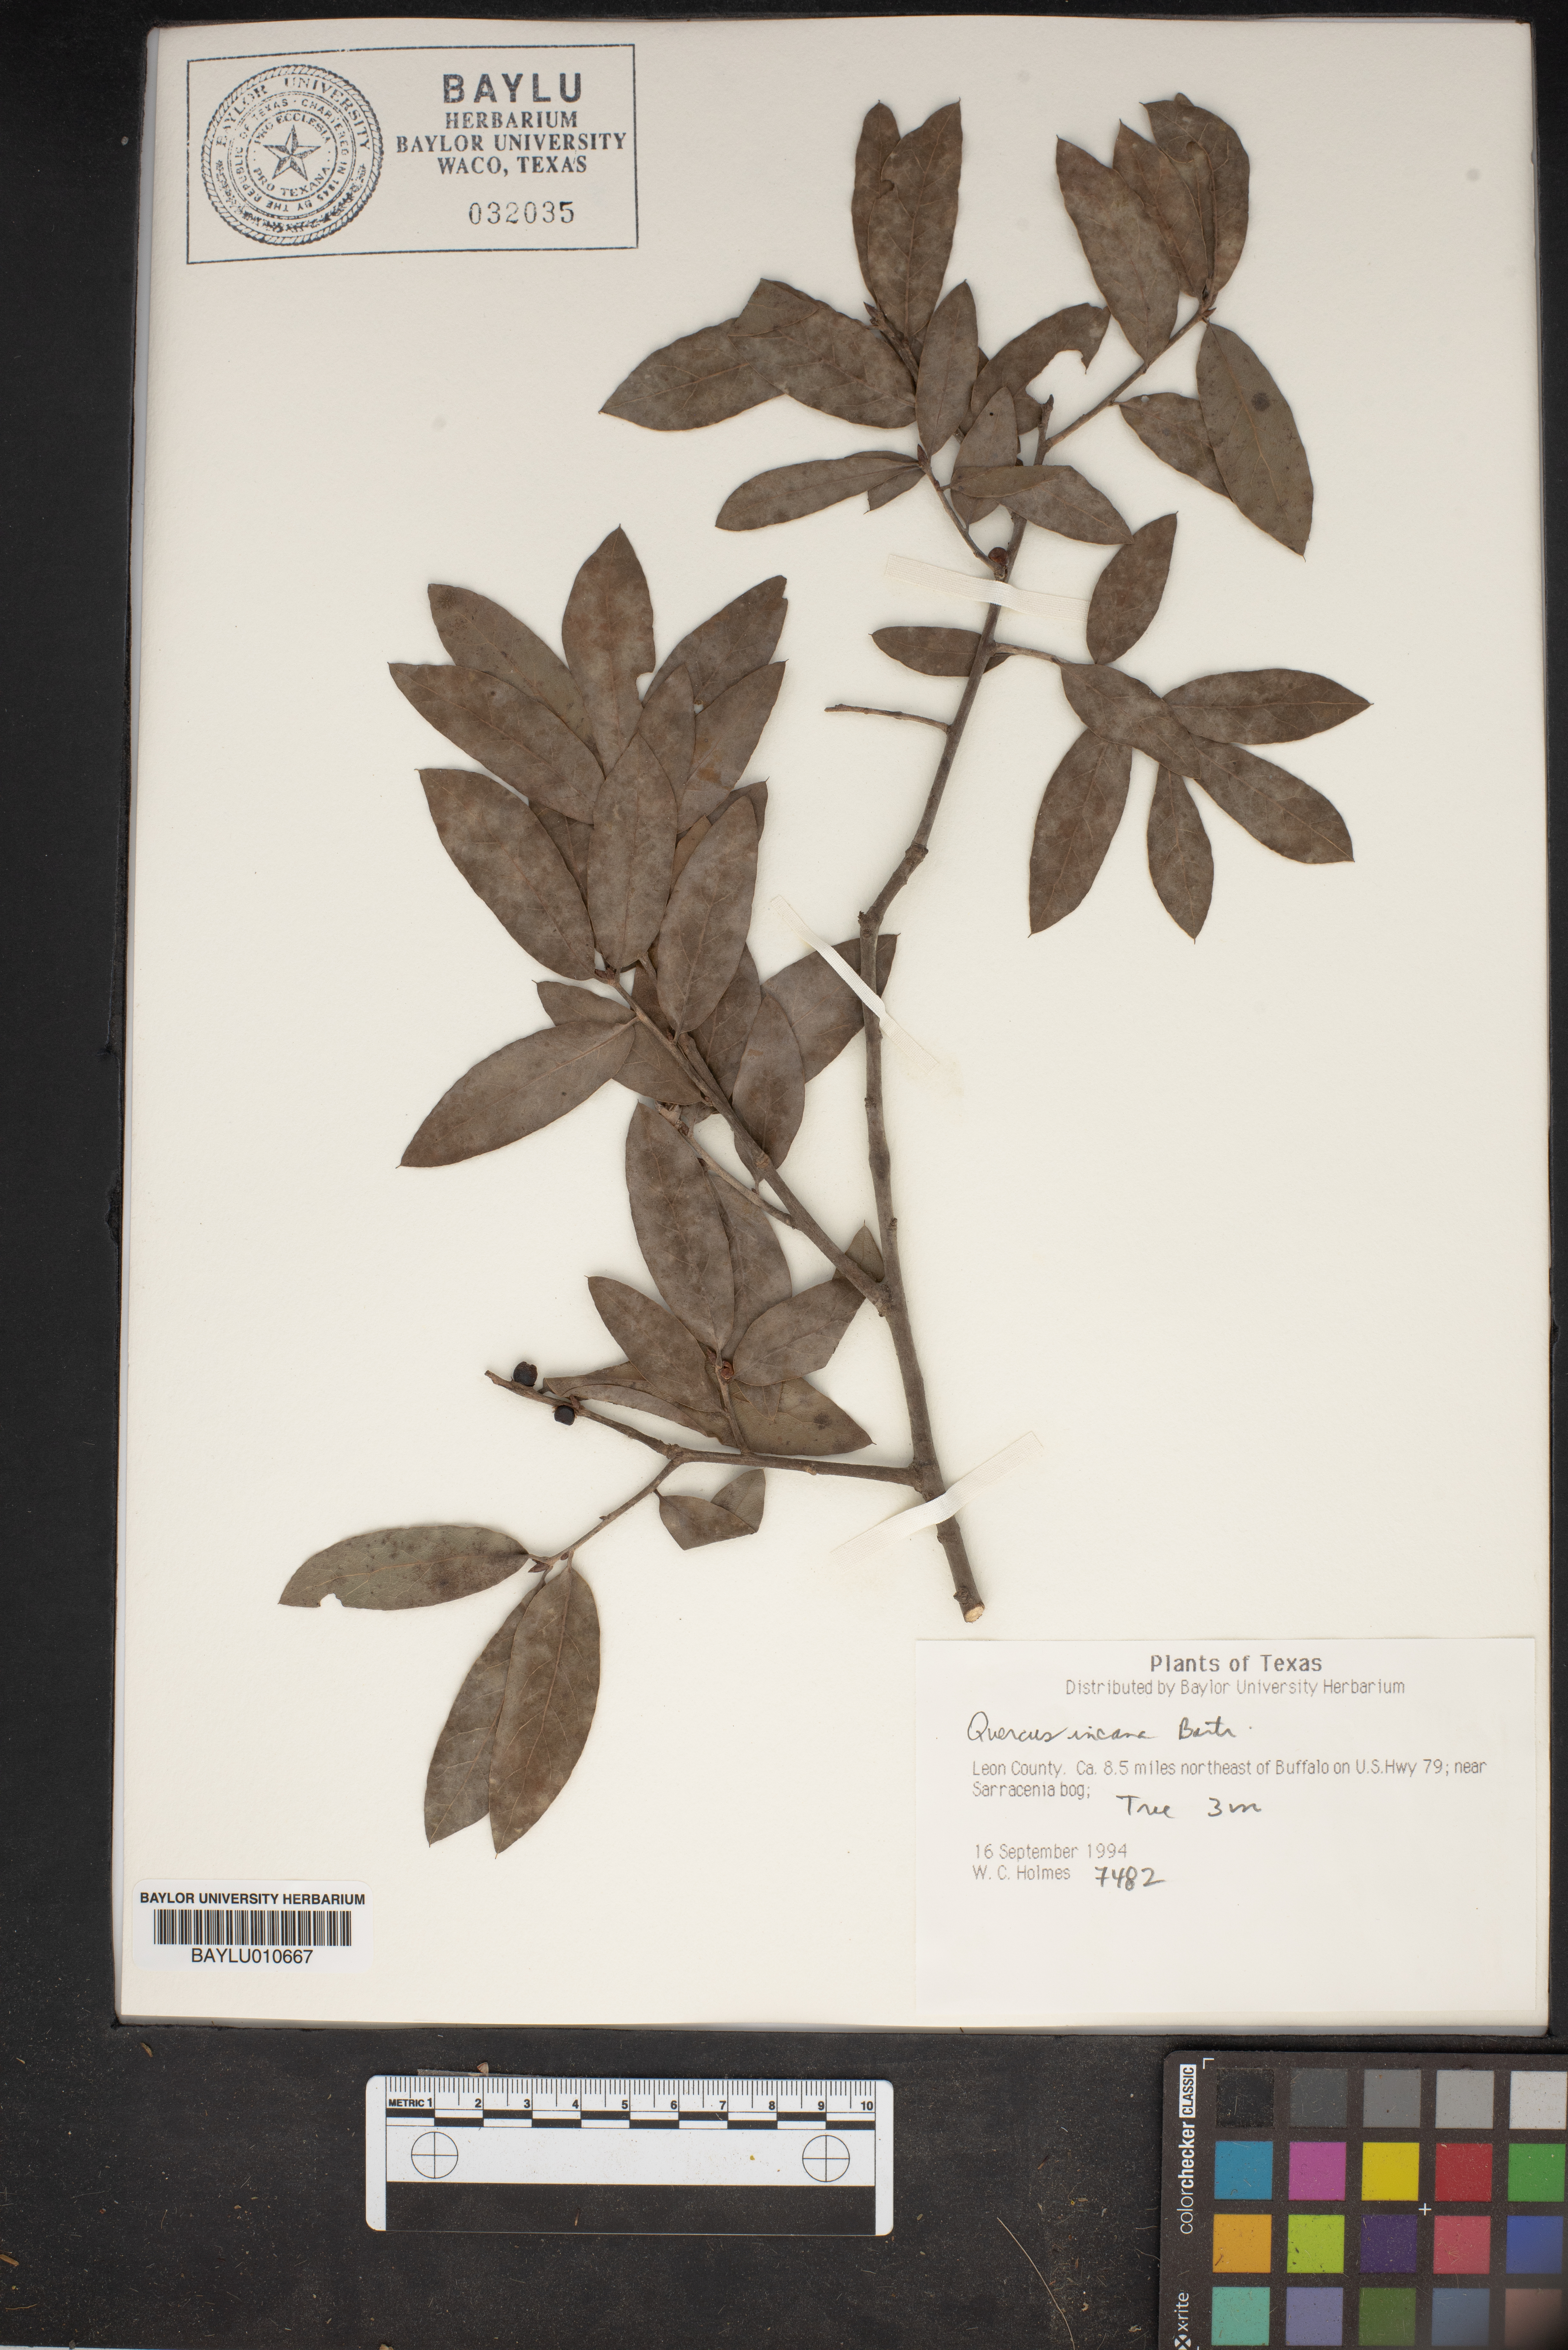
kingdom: Plantae
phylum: Tracheophyta
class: Magnoliopsida
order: Fagales
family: Fagaceae
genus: Quercus
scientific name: Quercus incana
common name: Bluejack oak
